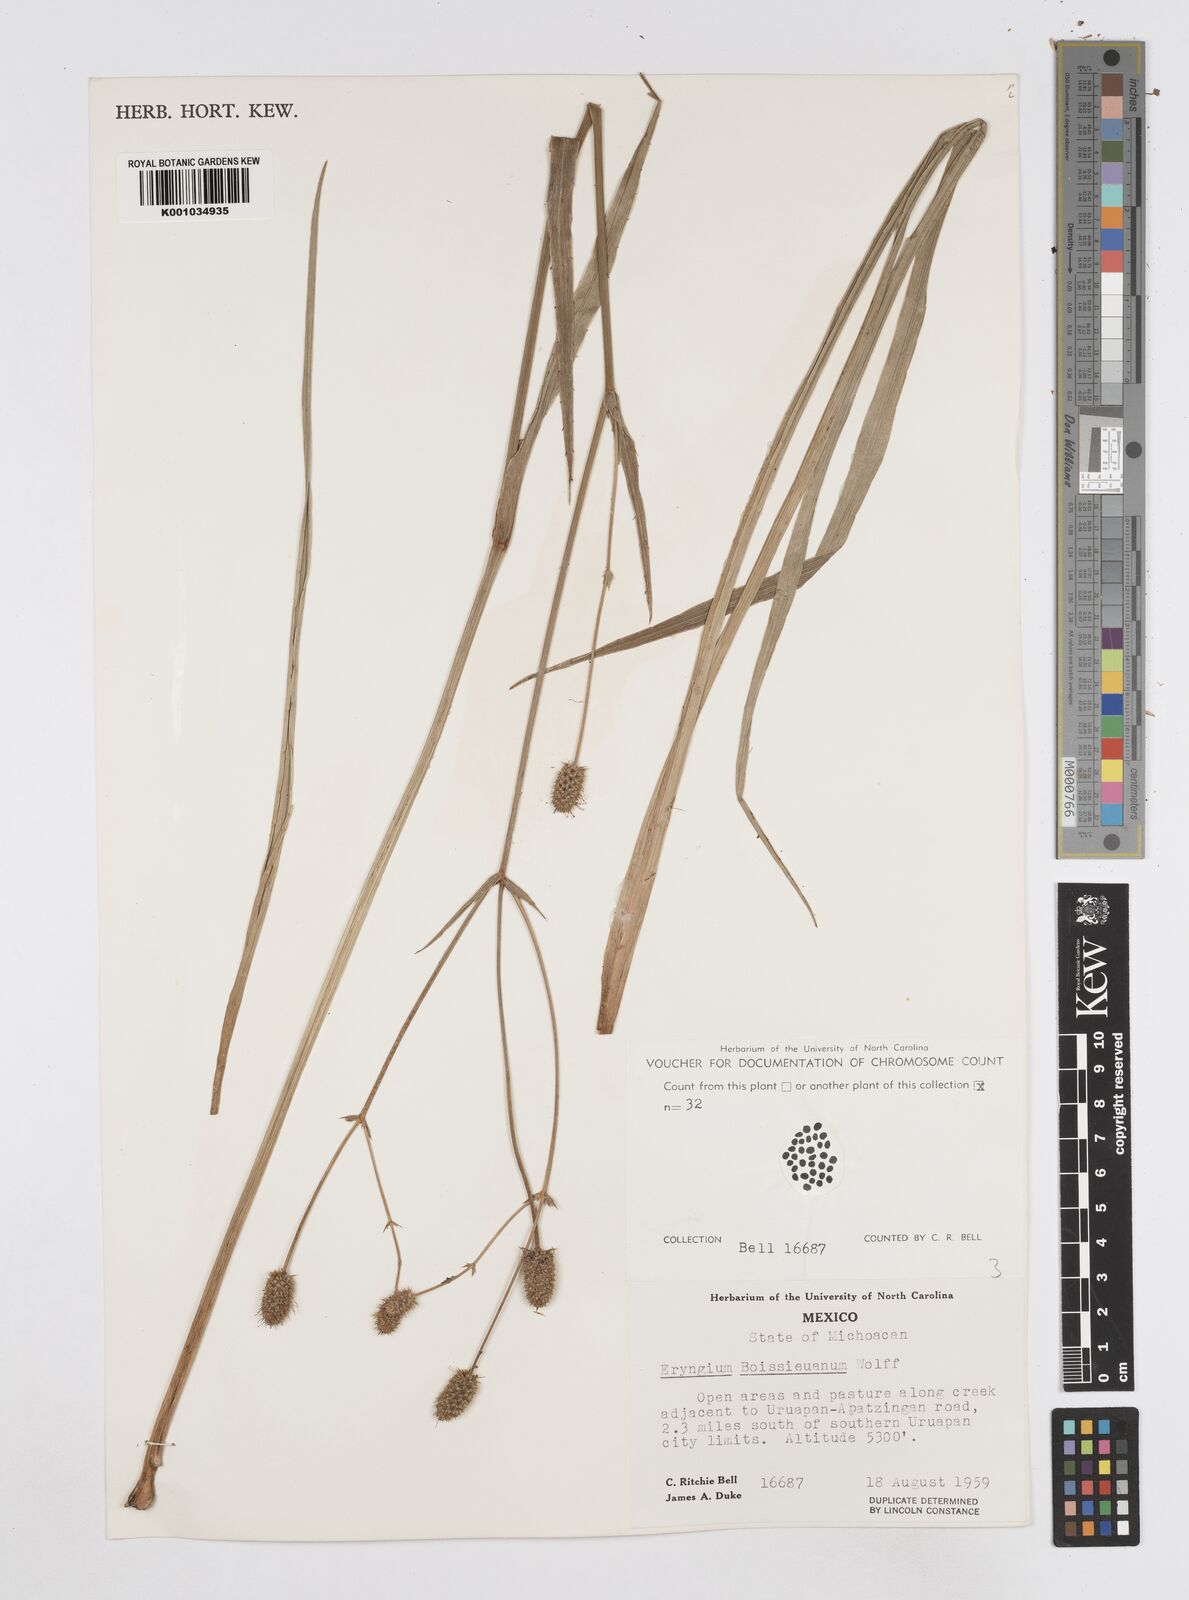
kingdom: Plantae
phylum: Tracheophyta
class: Magnoliopsida
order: Apiales
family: Apiaceae
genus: Eryngium
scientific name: Eryngium boissieuanum
